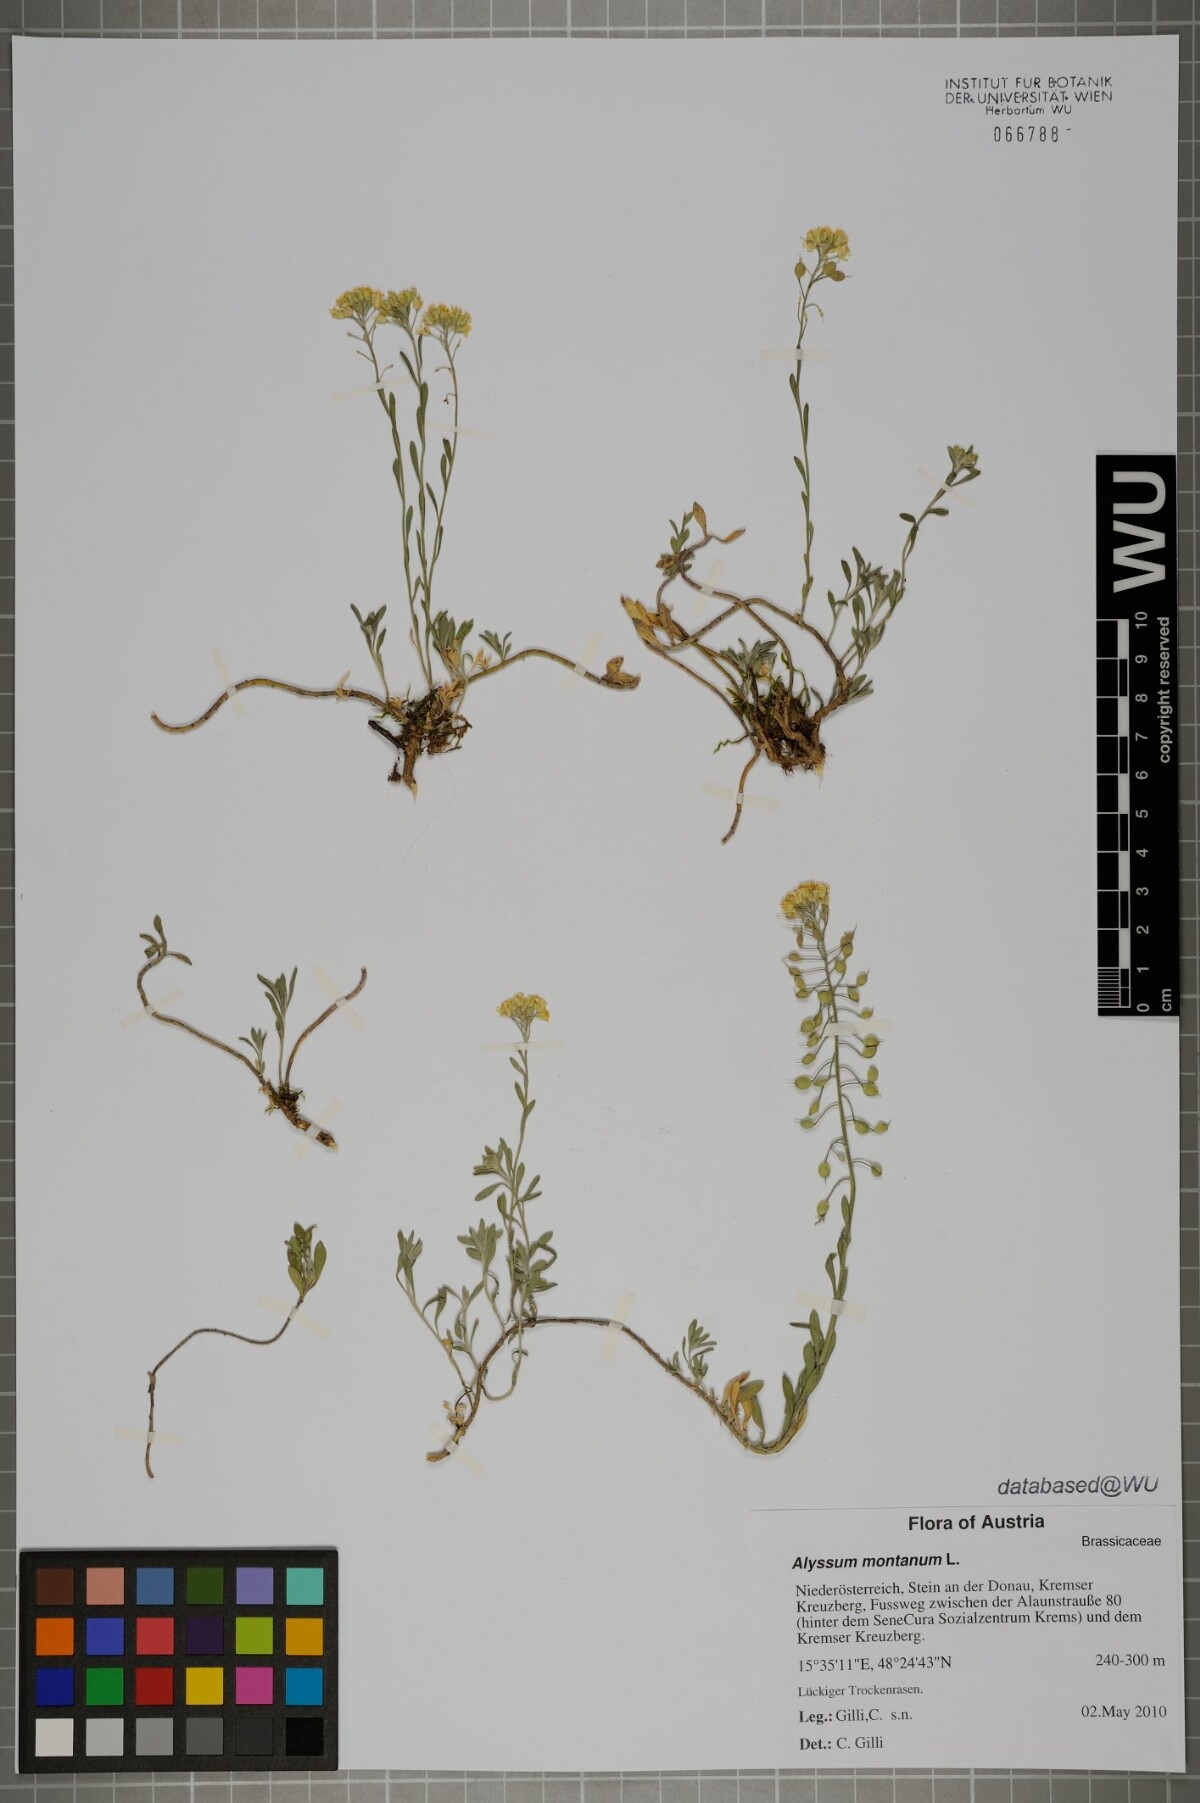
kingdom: Plantae
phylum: Tracheophyta
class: Magnoliopsida
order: Brassicales
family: Brassicaceae
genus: Alyssum
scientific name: Alyssum montanum
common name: Mountain alison
